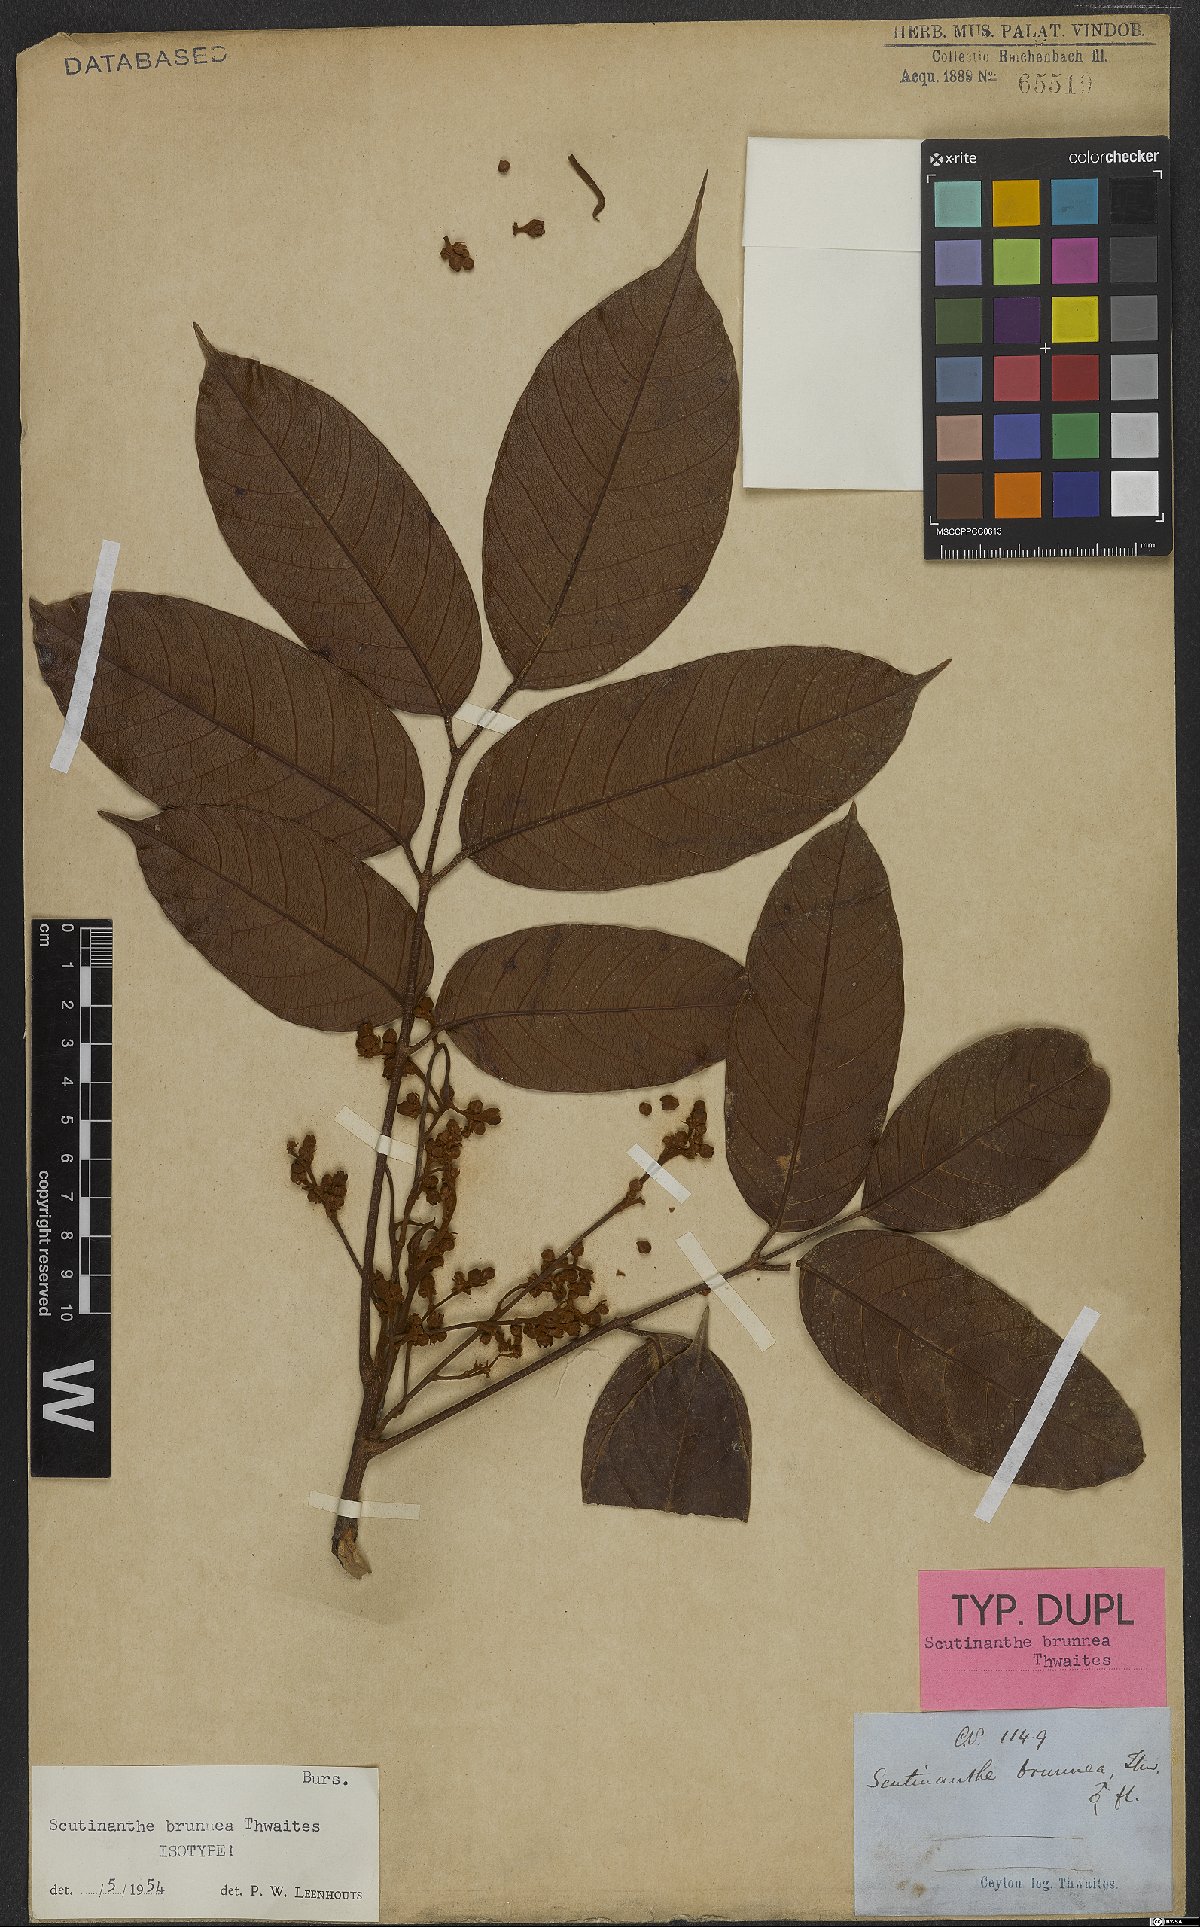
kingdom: Plantae
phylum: Tracheophyta
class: Magnoliopsida
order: Sapindales
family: Burseraceae
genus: Scutinanthe
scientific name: Scutinanthe brunnea
